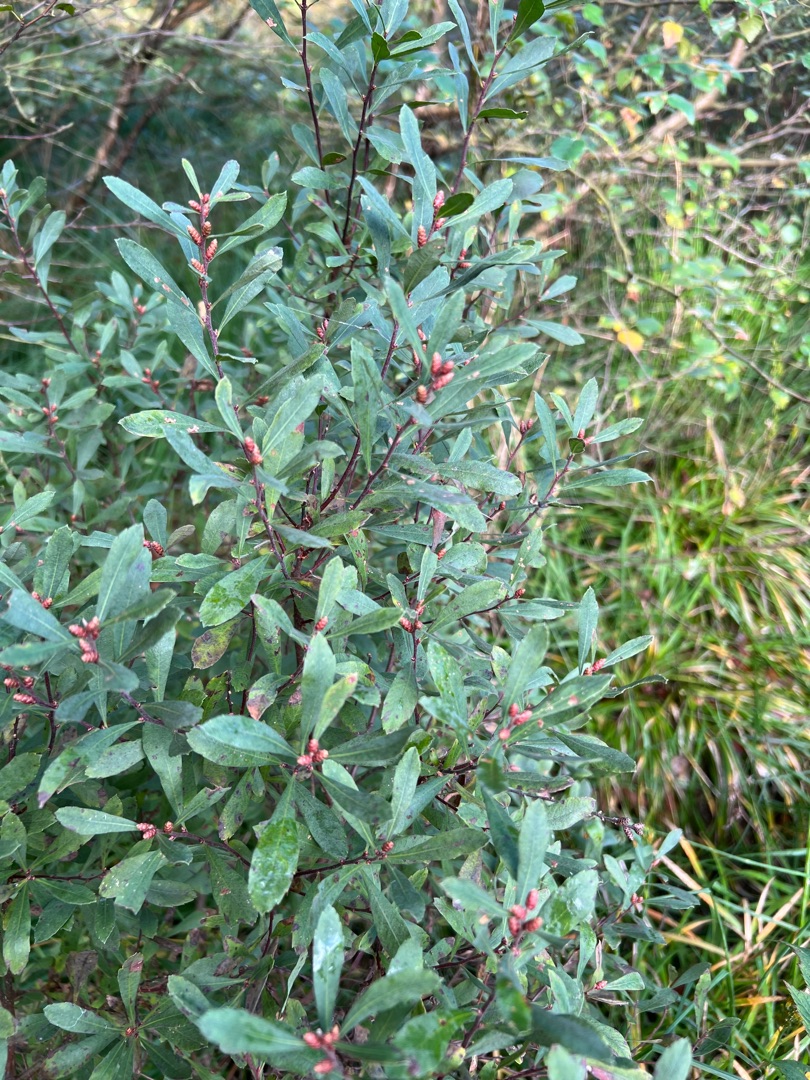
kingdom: Plantae
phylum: Tracheophyta
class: Magnoliopsida
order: Fagales
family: Myricaceae
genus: Myrica
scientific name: Myrica gale
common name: Pors
